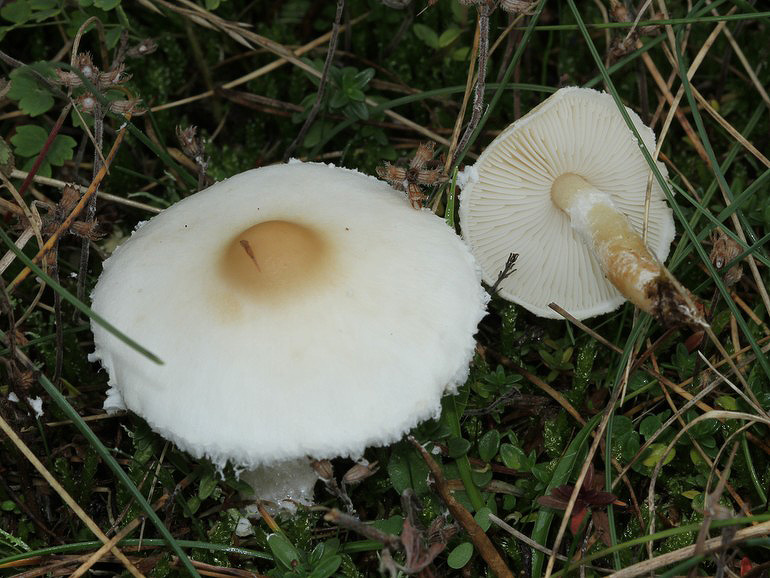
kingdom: Fungi
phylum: Basidiomycota
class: Agaricomycetes
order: Agaricales
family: Agaricaceae
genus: Lepiota
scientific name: Lepiota erminea
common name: hvid parasolhat
